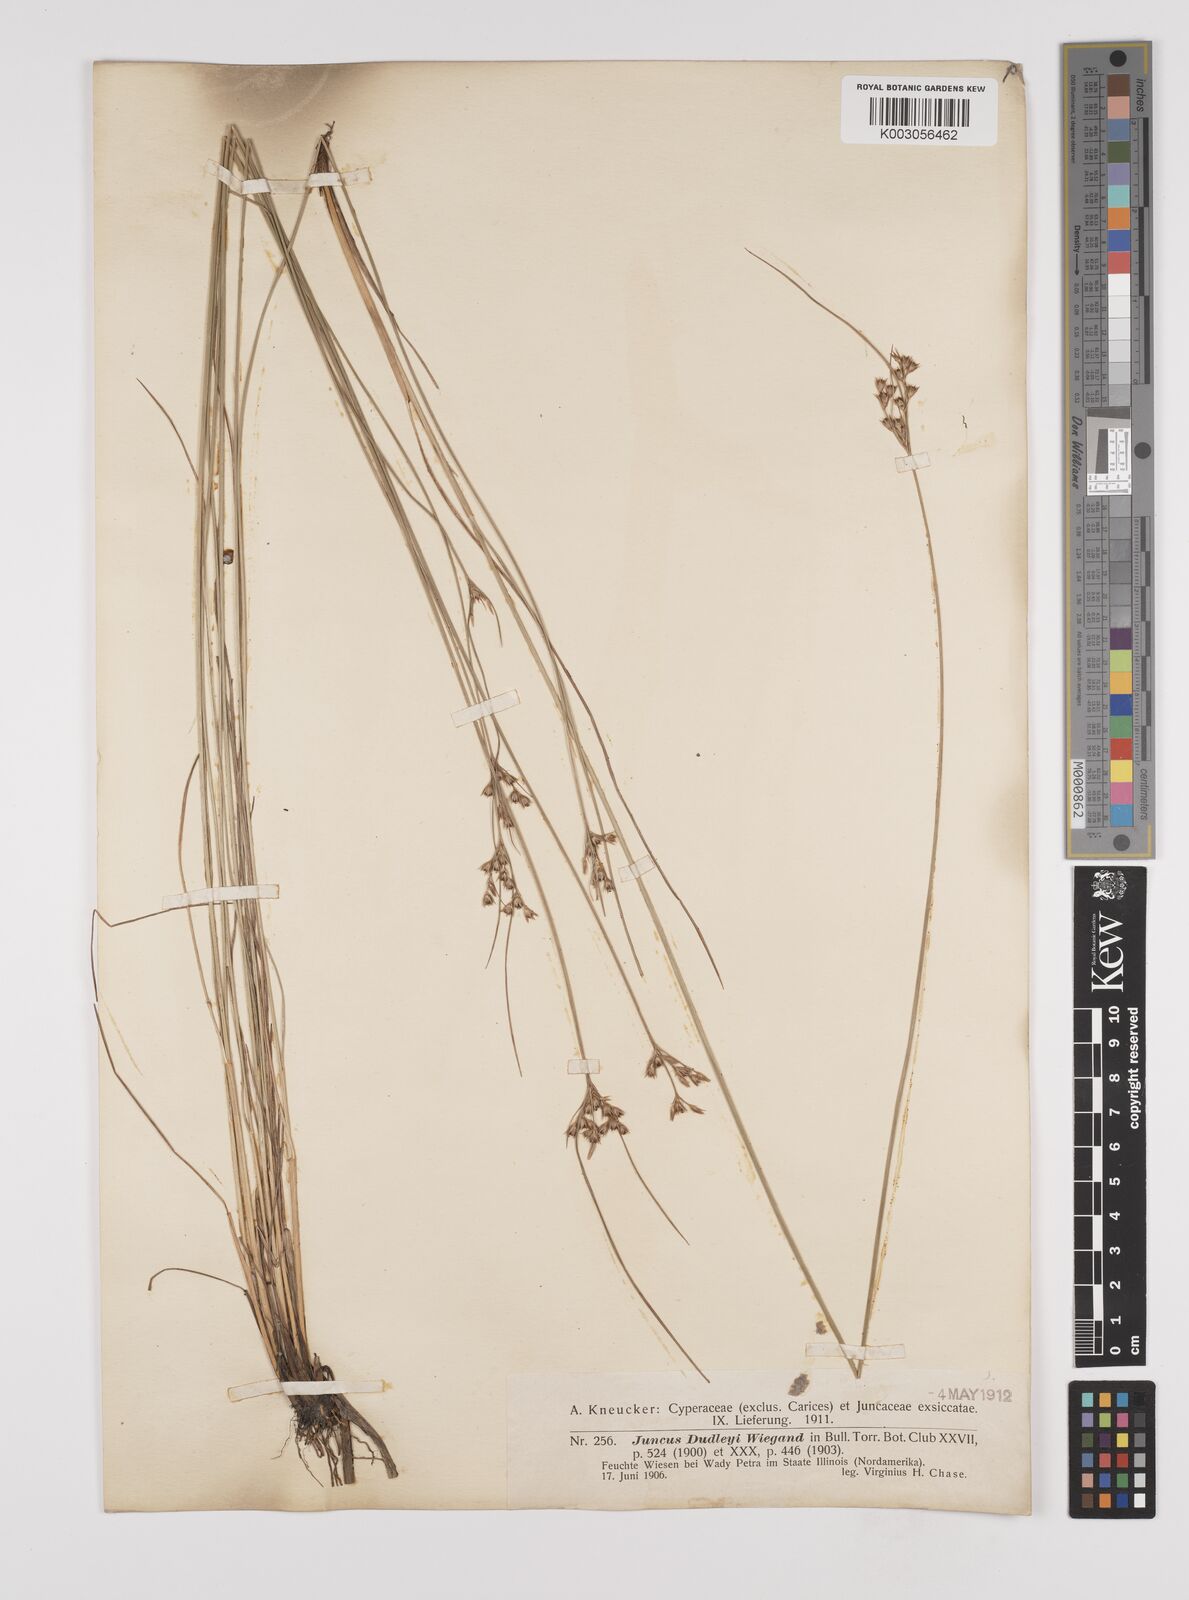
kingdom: Plantae
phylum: Tracheophyta
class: Liliopsida
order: Poales
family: Juncaceae
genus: Juncus
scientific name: Juncus dudleyi
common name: Dudley's rush
